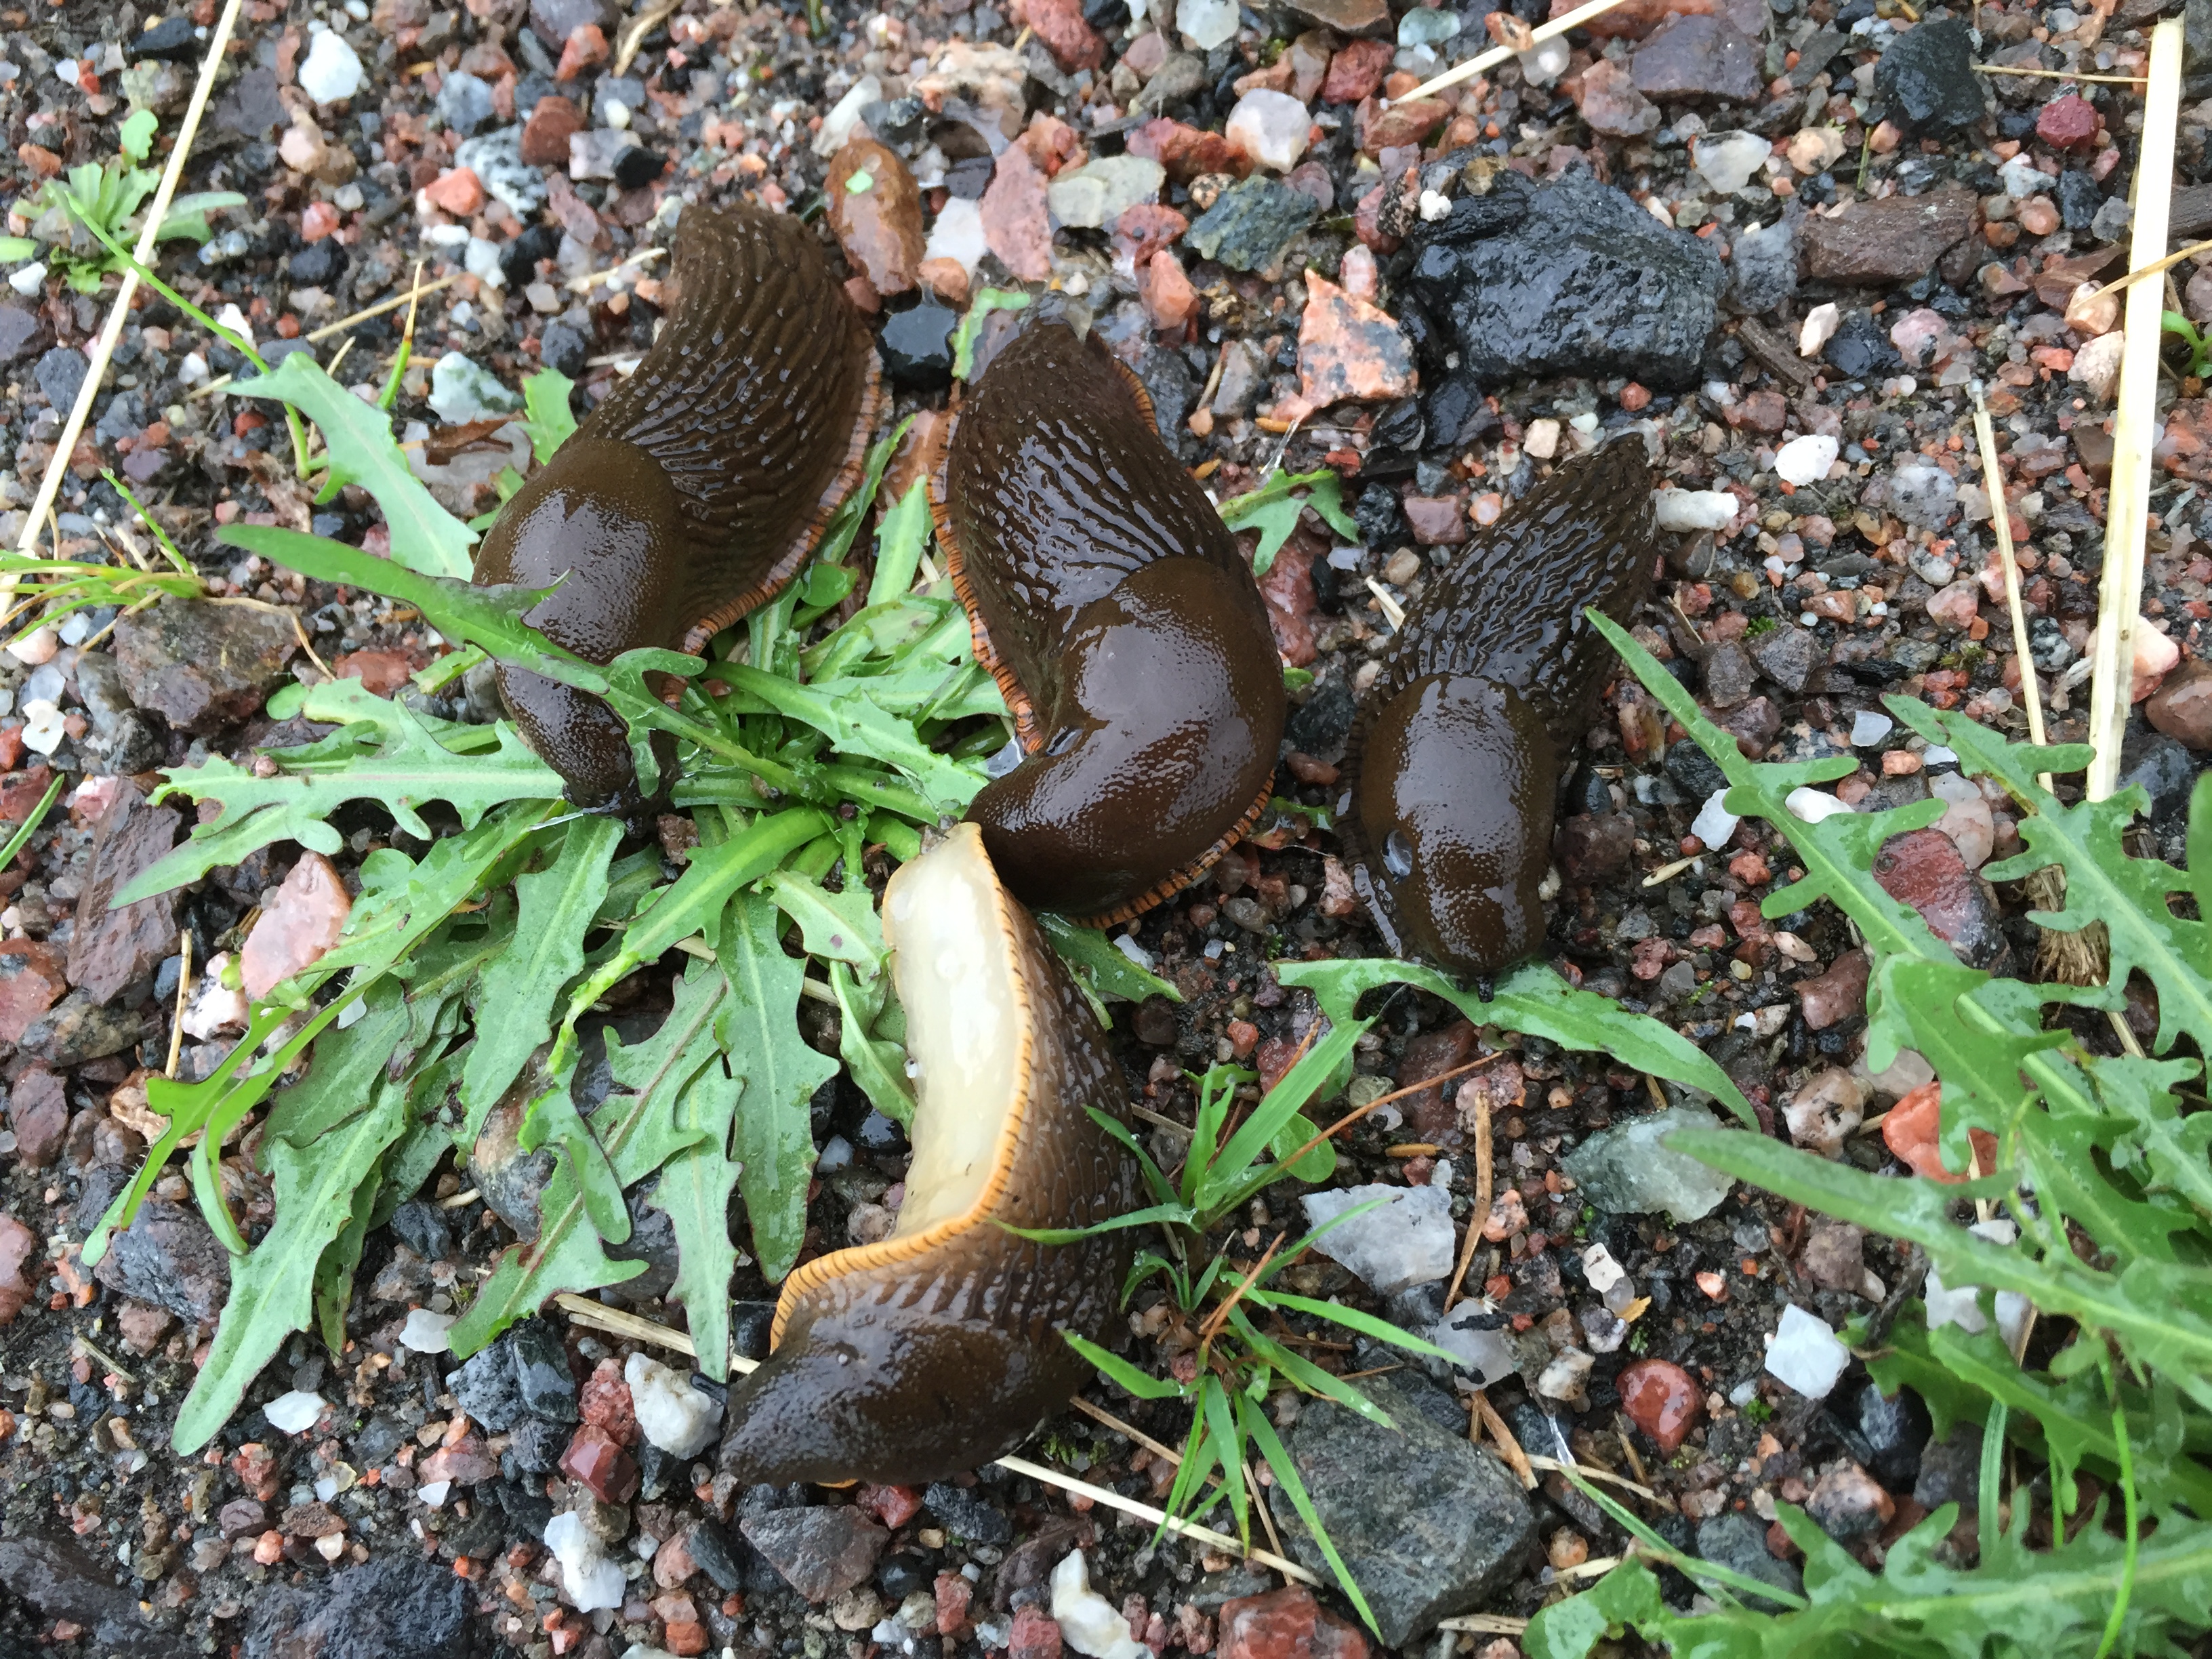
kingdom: Animalia
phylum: Mollusca
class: Gastropoda
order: Stylommatophora
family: Arionidae
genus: Arion
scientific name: Arion vulgaris
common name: Lusitanian slug
